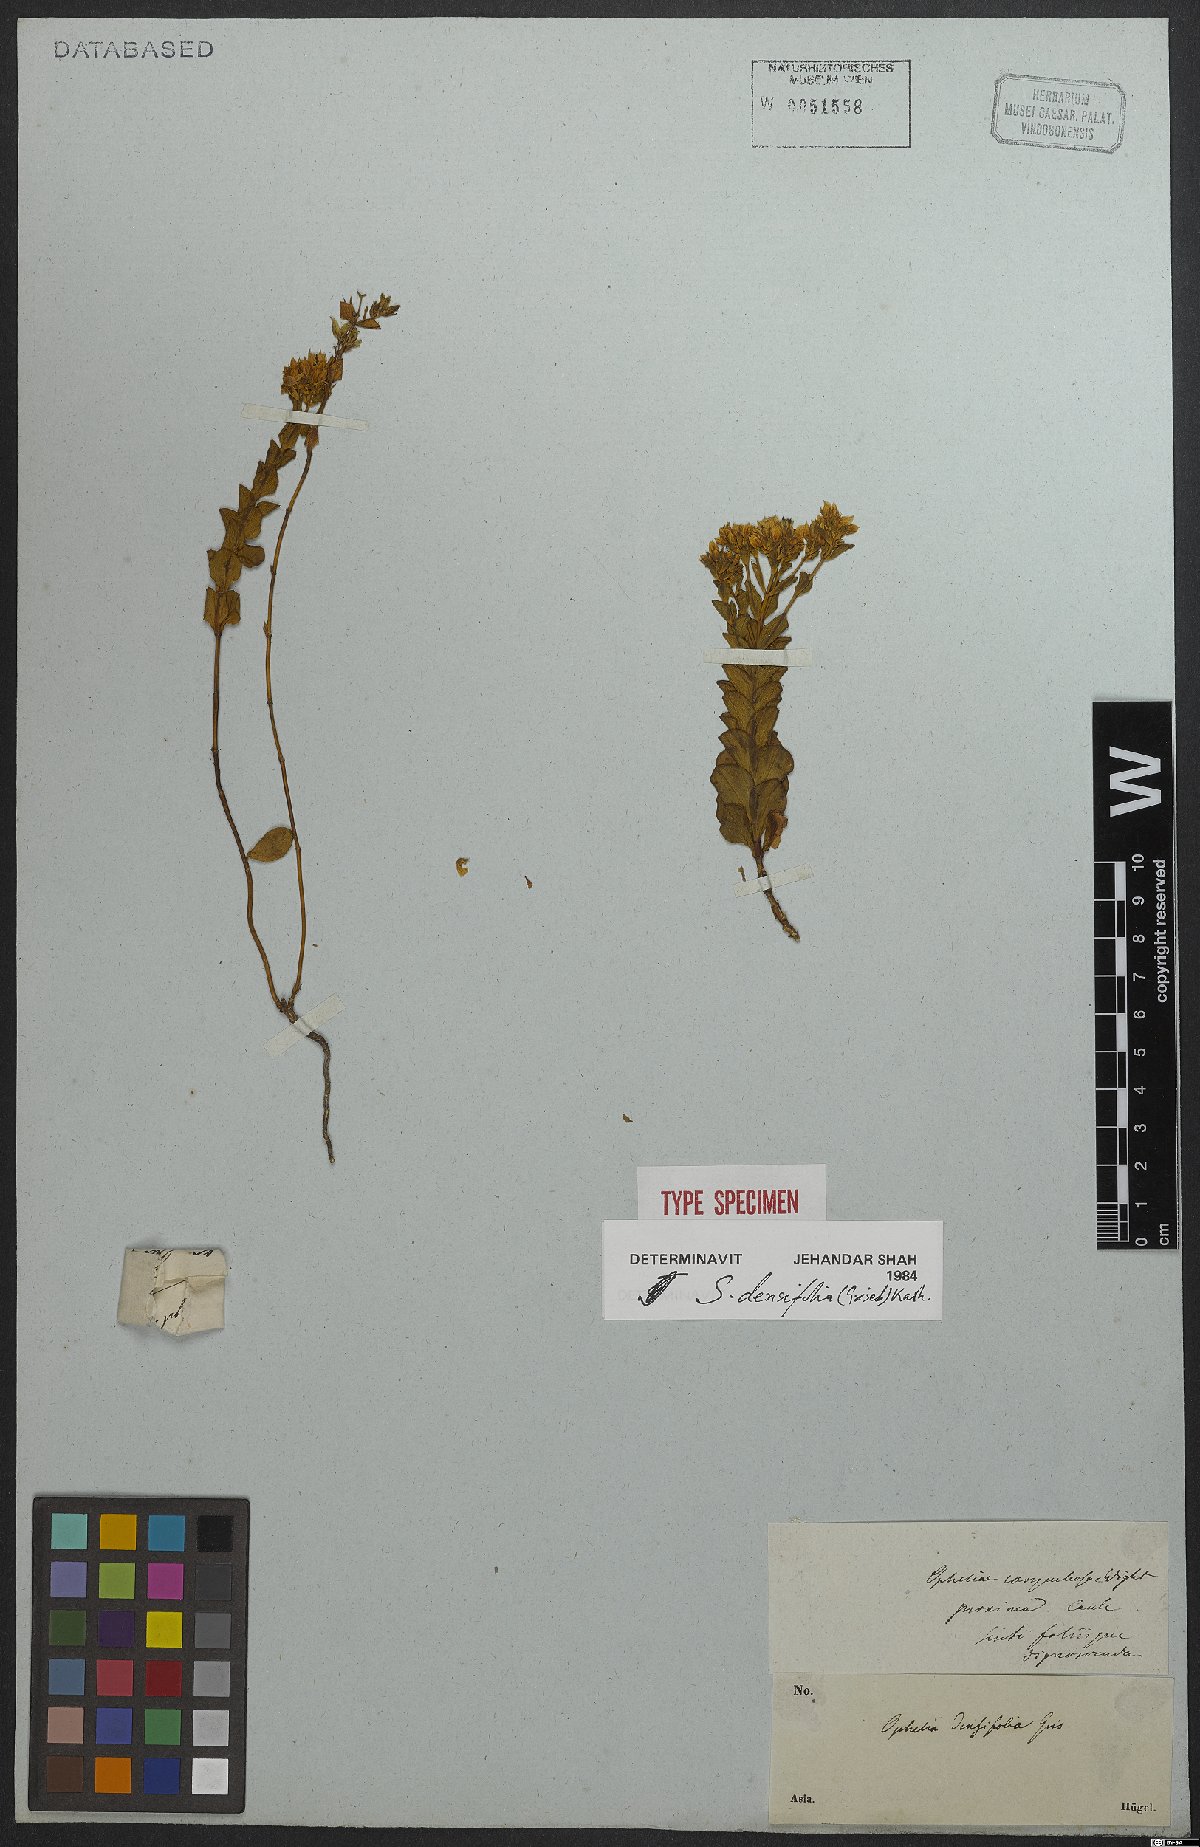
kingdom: Plantae
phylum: Tracheophyta
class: Magnoliopsida
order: Gentianales
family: Gentianaceae
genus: Swertia
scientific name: Swertia densifolia
